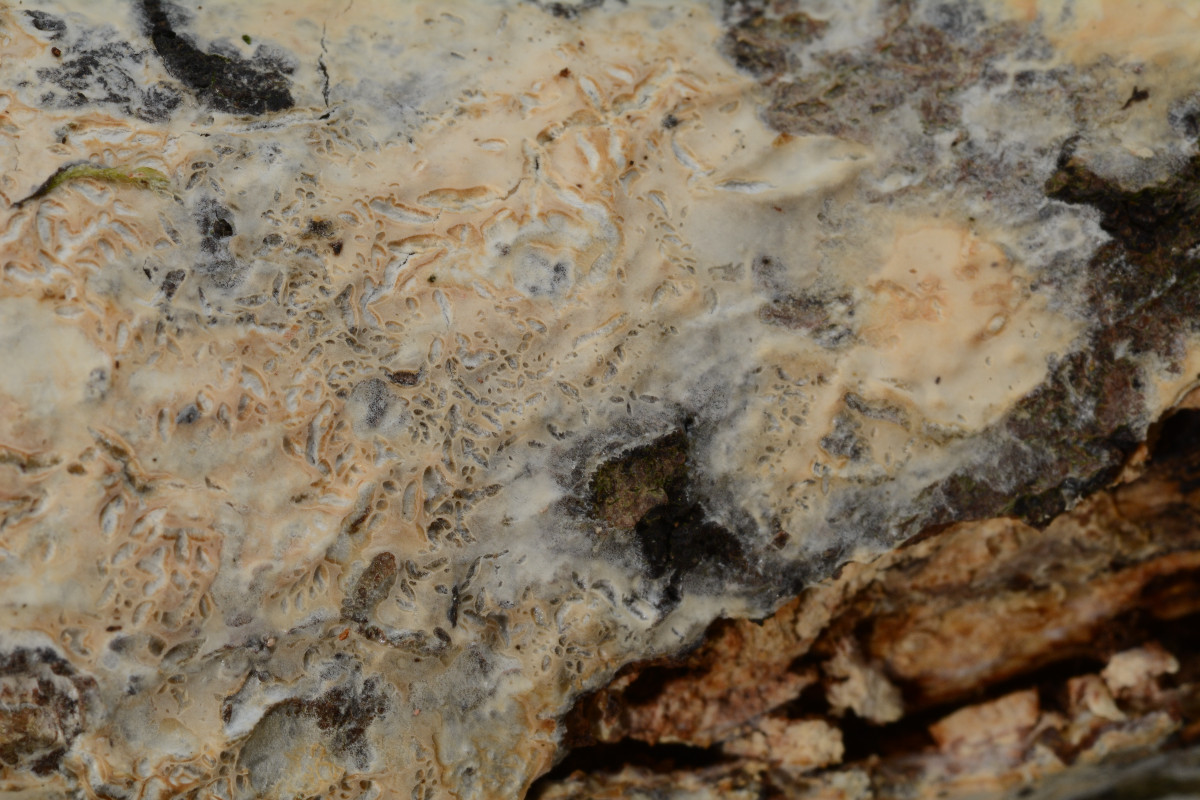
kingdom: Fungi
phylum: Basidiomycota
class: Agaricomycetes
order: Agaricales
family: Radulomycetaceae
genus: Radulomyces
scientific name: Radulomyces confluens
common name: glat naftalinskind
